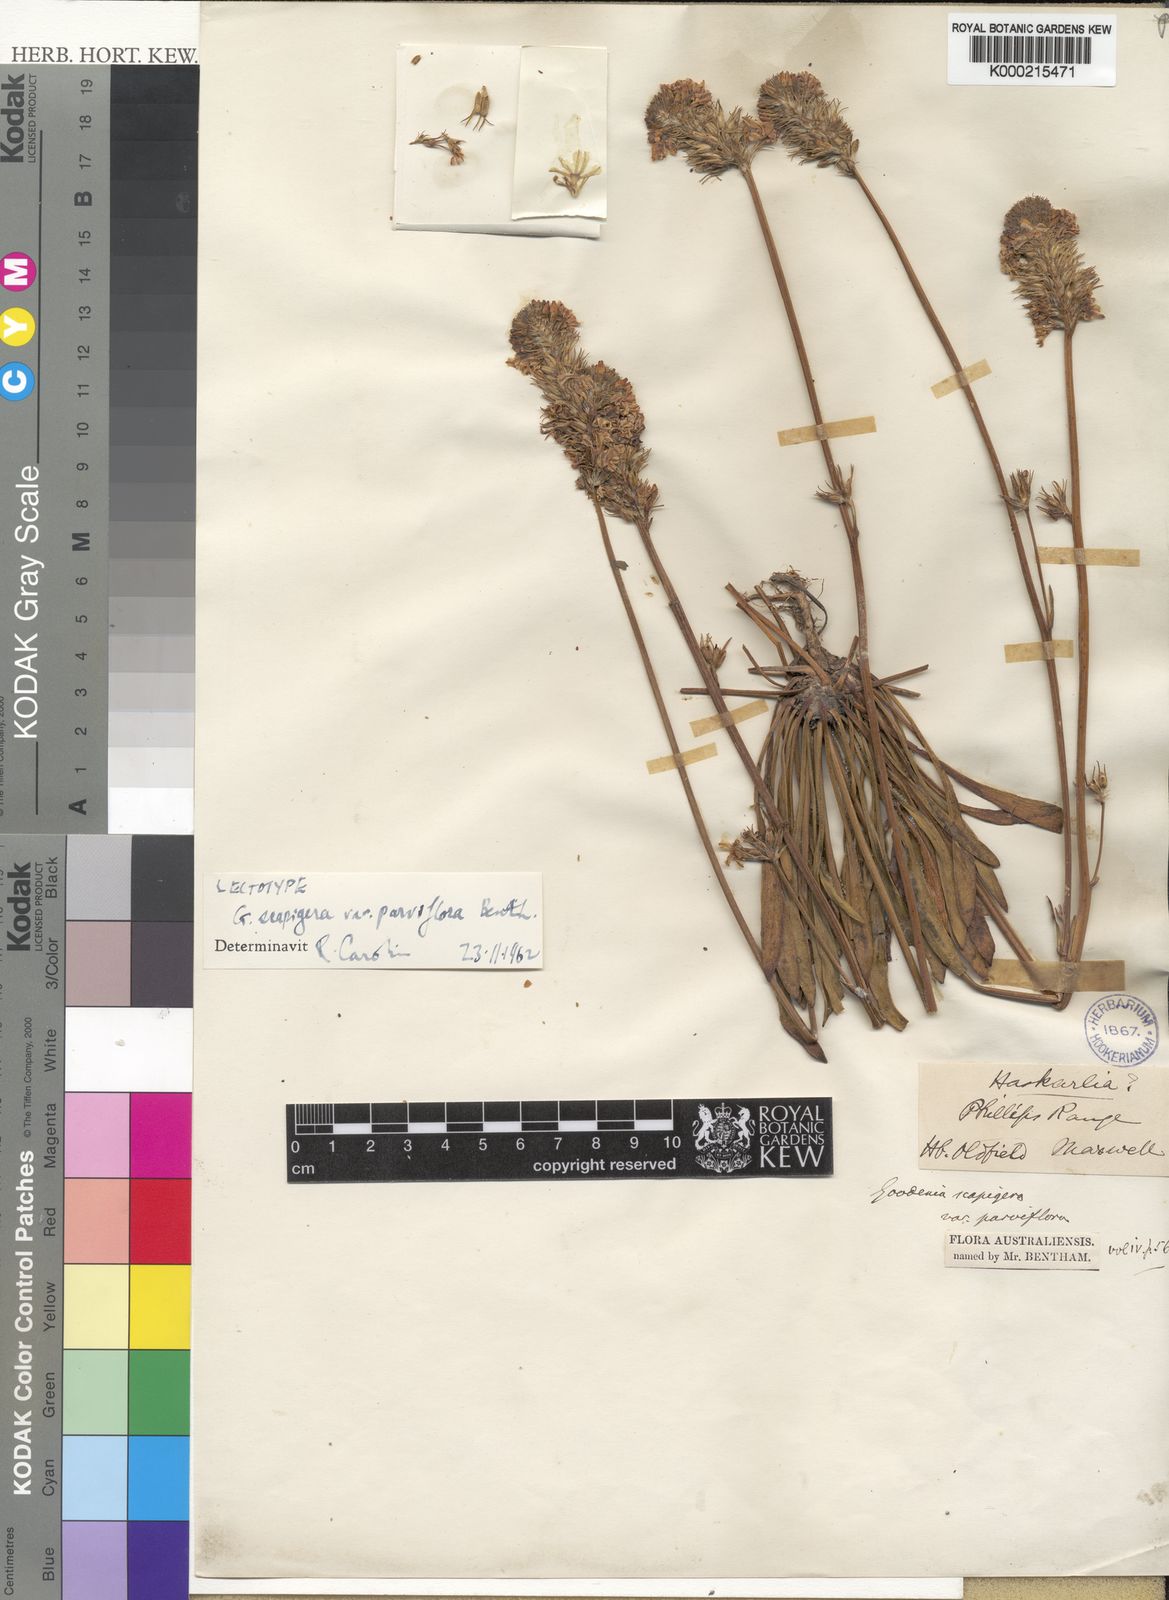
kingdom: Plantae
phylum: Tracheophyta
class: Magnoliopsida
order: Asterales
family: Goodeniaceae
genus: Goodenia
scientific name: Goodenia scapigera
